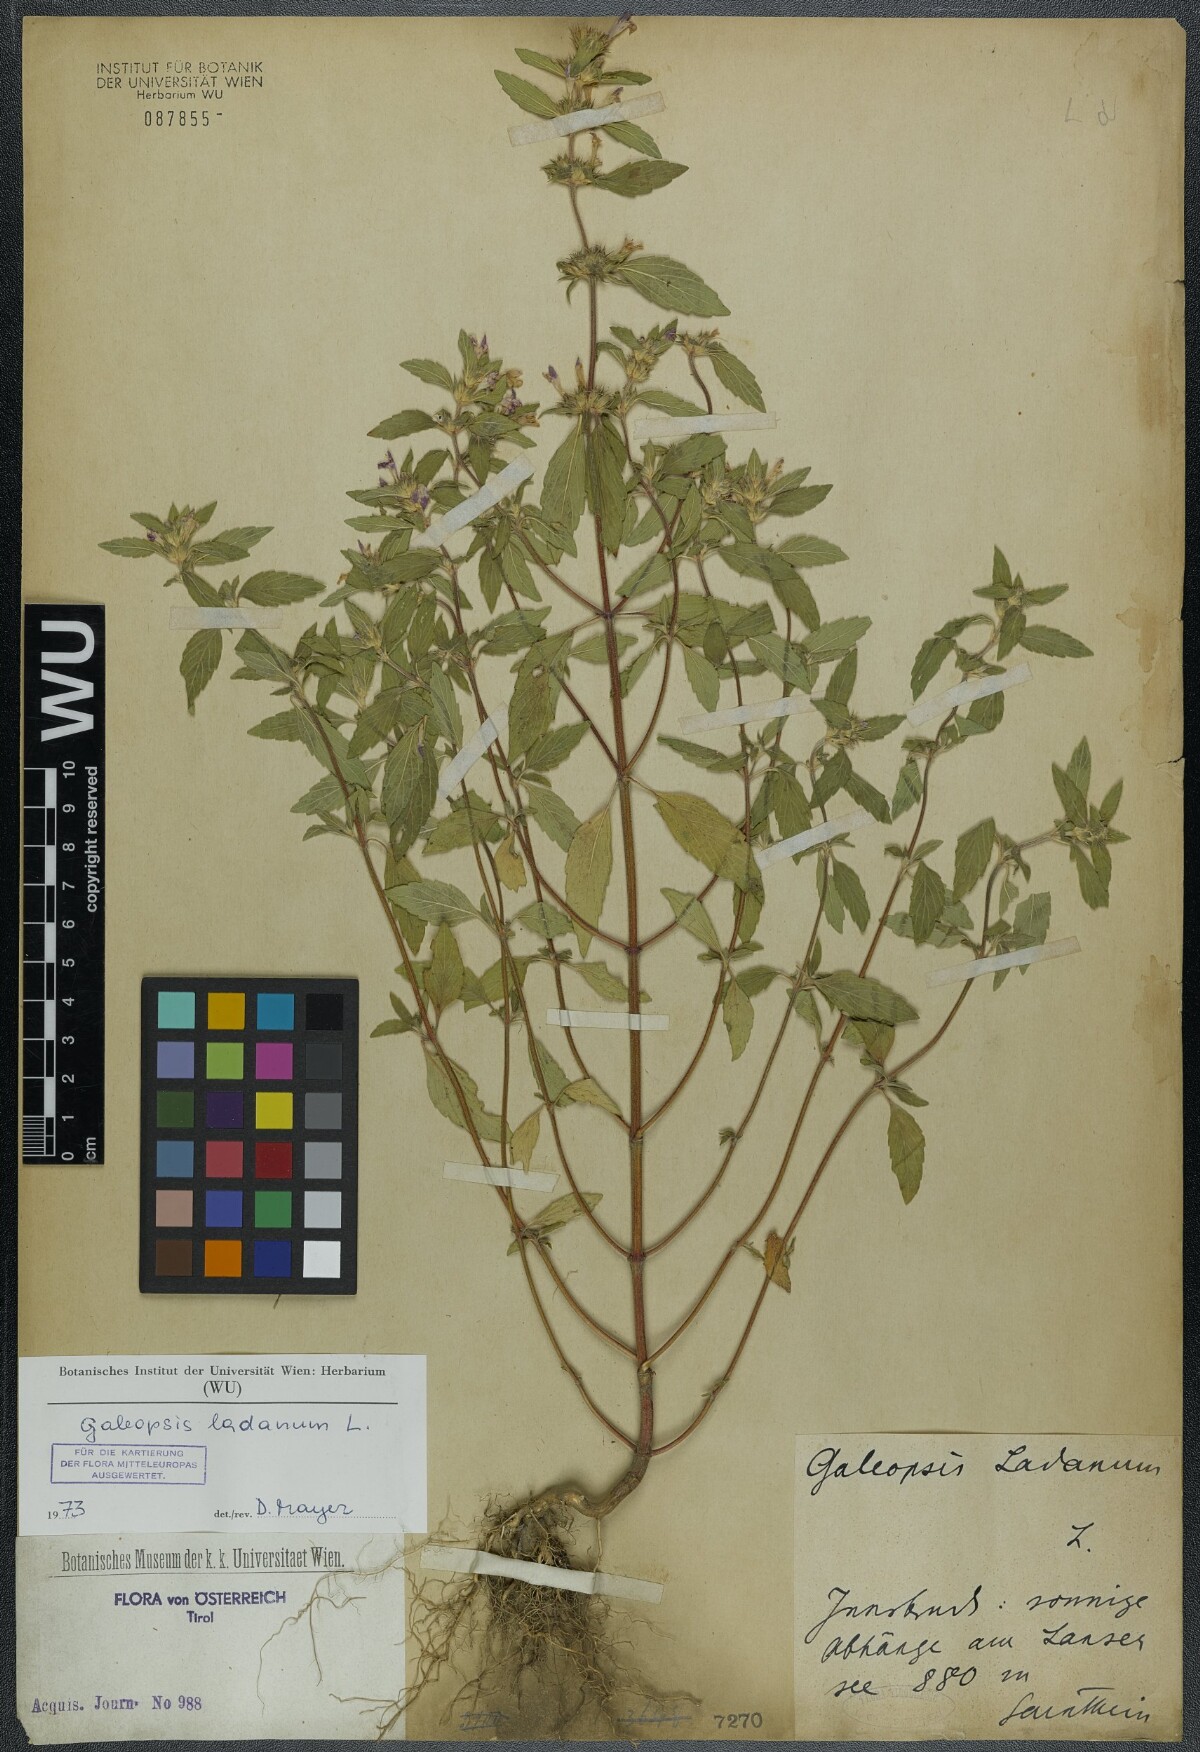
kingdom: Plantae
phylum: Tracheophyta
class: Magnoliopsida
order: Lamiales
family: Lamiaceae
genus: Galeopsis
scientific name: Galeopsis ladanum
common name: Broad-leaved hemp-nettle
